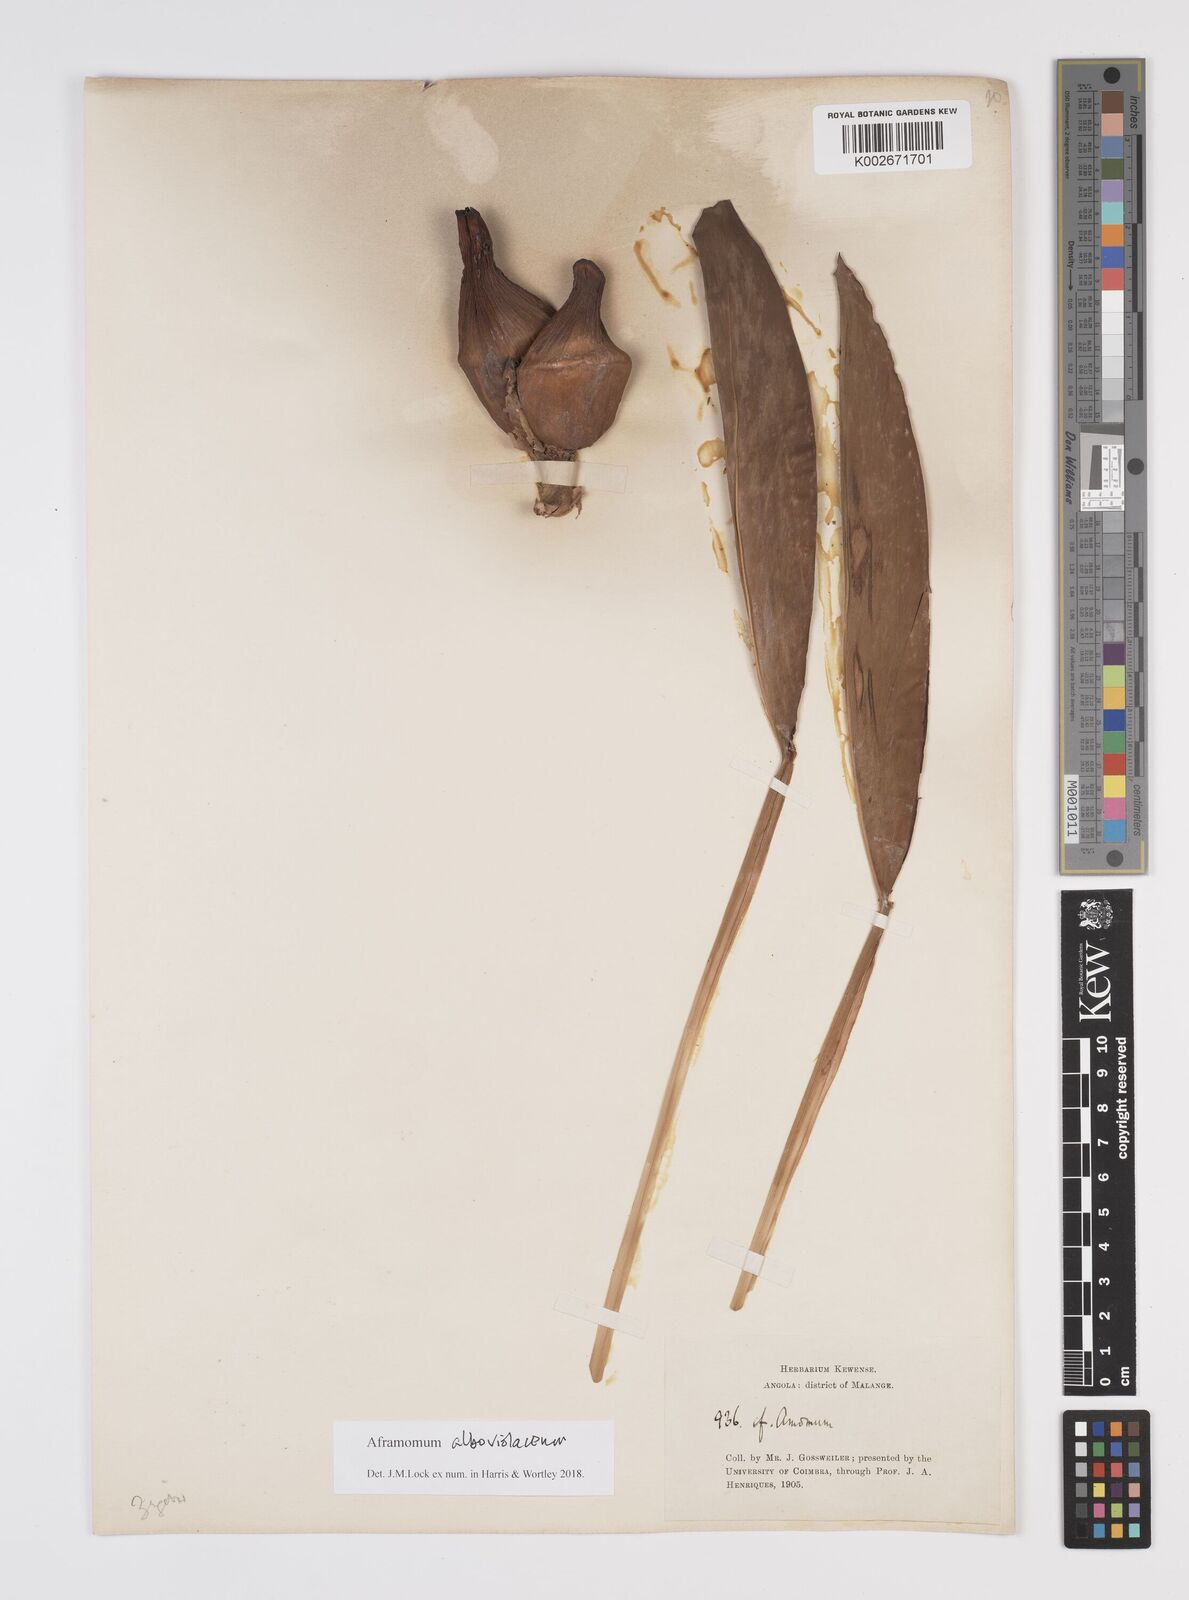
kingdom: Plantae
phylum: Tracheophyta
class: Liliopsida
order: Zingiberales
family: Zingiberaceae
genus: Aframomum
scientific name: Aframomum alboviolaceum
